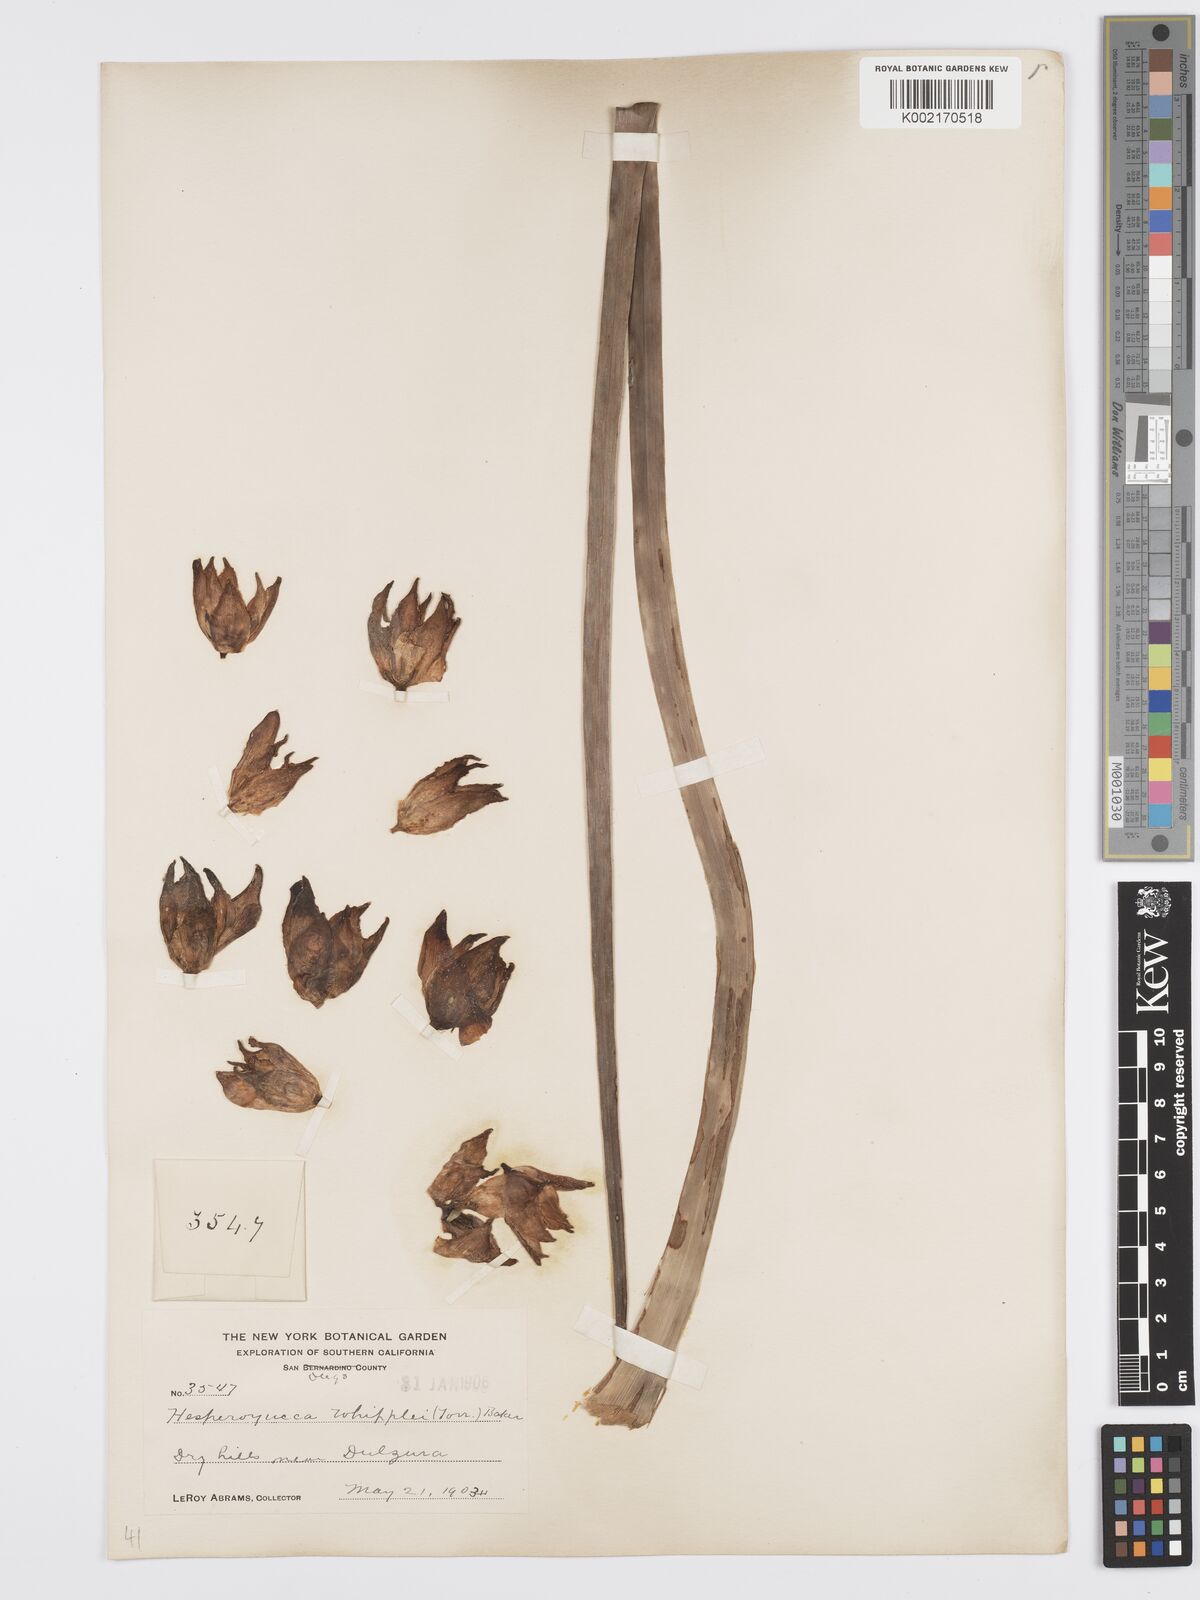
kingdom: Plantae
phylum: Tracheophyta
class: Liliopsida
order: Asparagales
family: Asparagaceae
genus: Hesperoyucca
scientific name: Hesperoyucca whipplei
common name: Our lord's-candle
